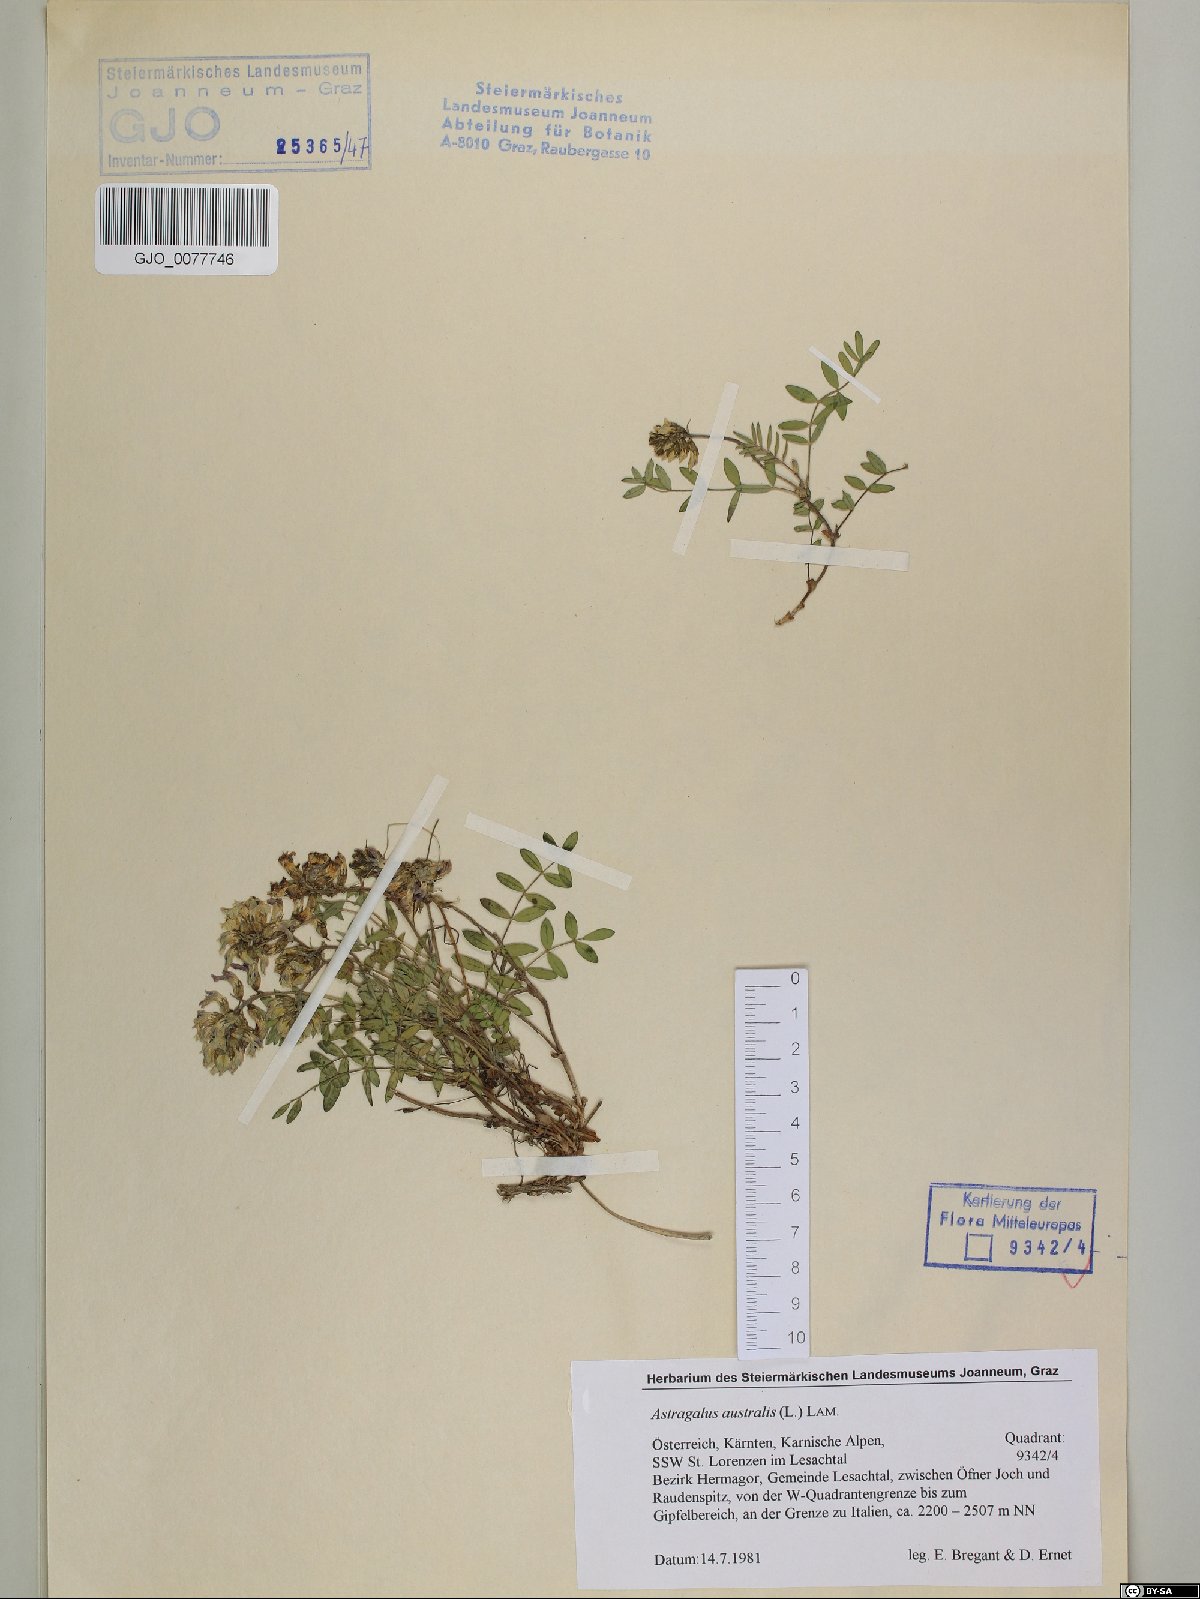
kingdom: Plantae
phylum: Tracheophyta
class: Magnoliopsida
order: Fabales
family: Fabaceae
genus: Astragalus
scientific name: Astragalus australis
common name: Indian milk-vetch
